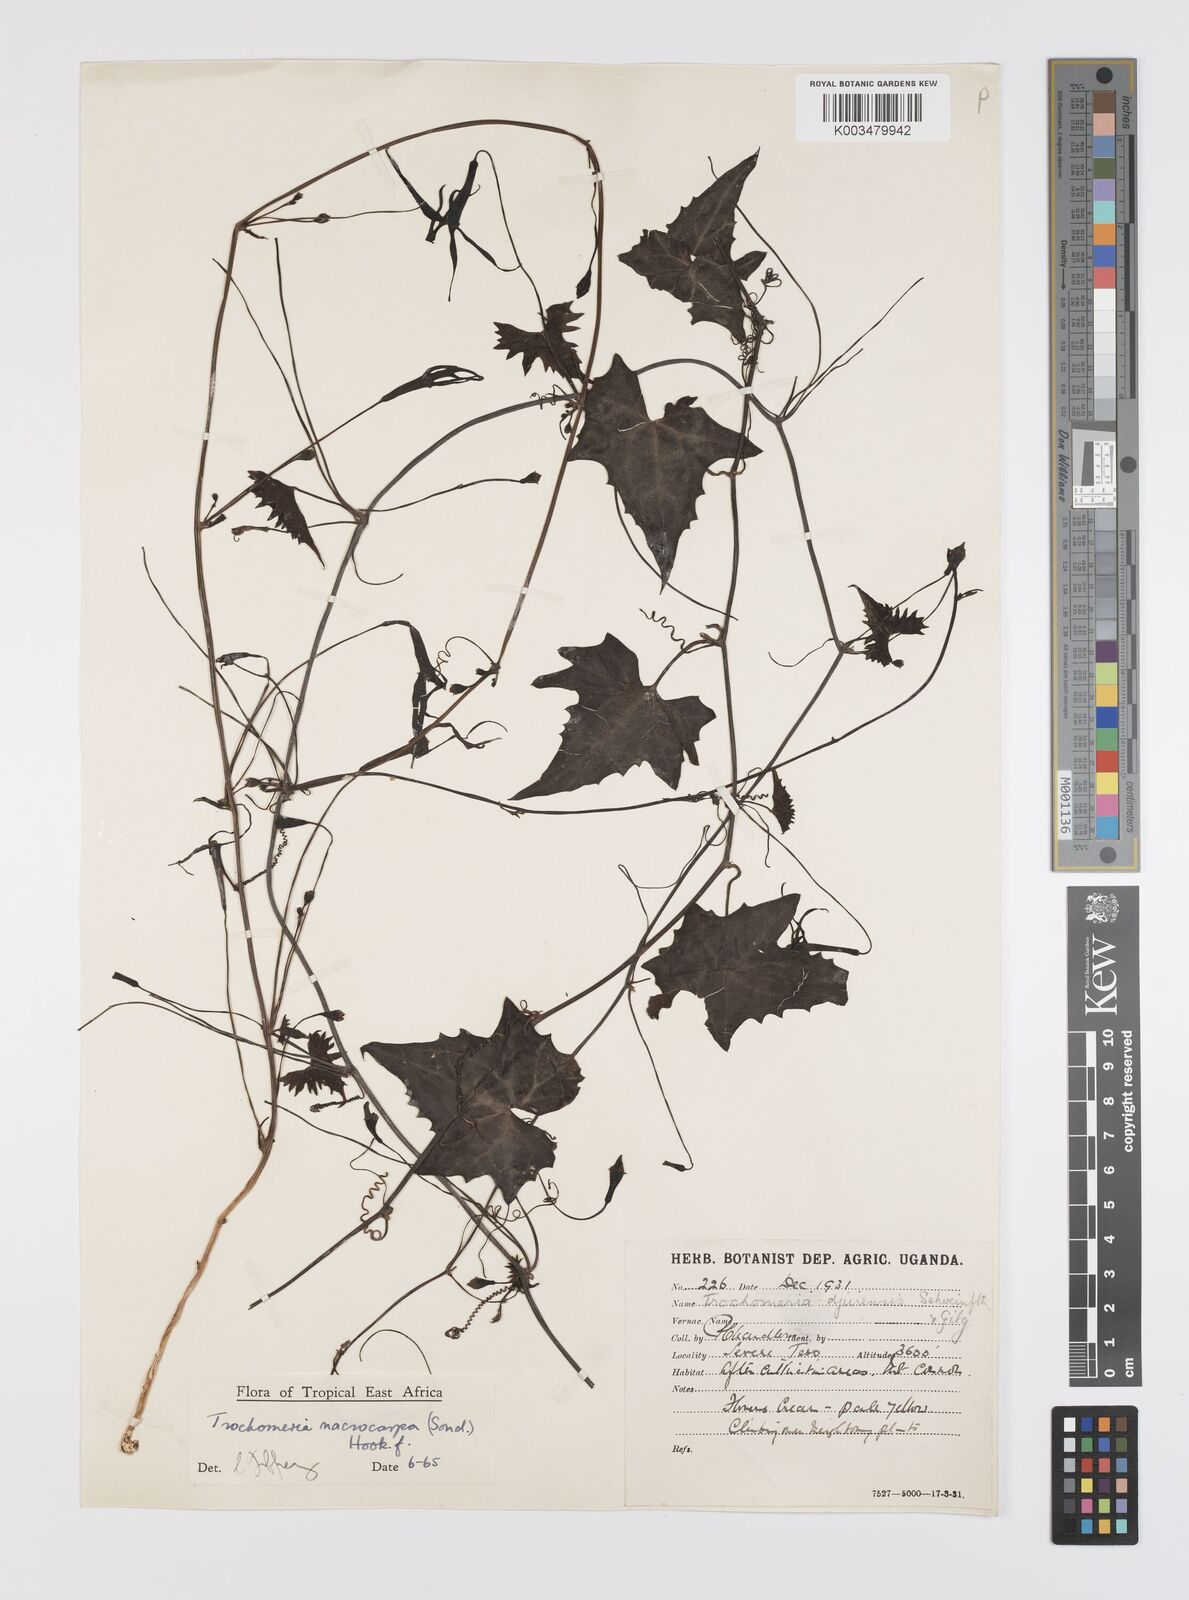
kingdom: Plantae
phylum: Tracheophyta
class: Magnoliopsida
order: Cucurbitales
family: Cucurbitaceae
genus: Trochomeria
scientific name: Trochomeria macrocarpa
